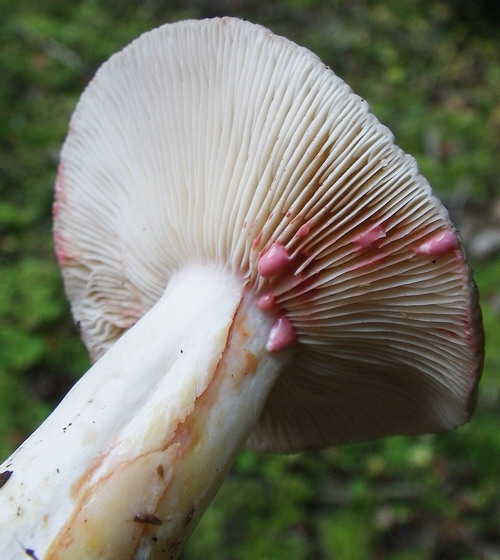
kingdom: Fungi
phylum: Basidiomycota
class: Agaricomycetes
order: Russulales
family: Russulaceae
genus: Lactarius
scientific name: Lactarius acris
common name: rosamælket mælkehat
